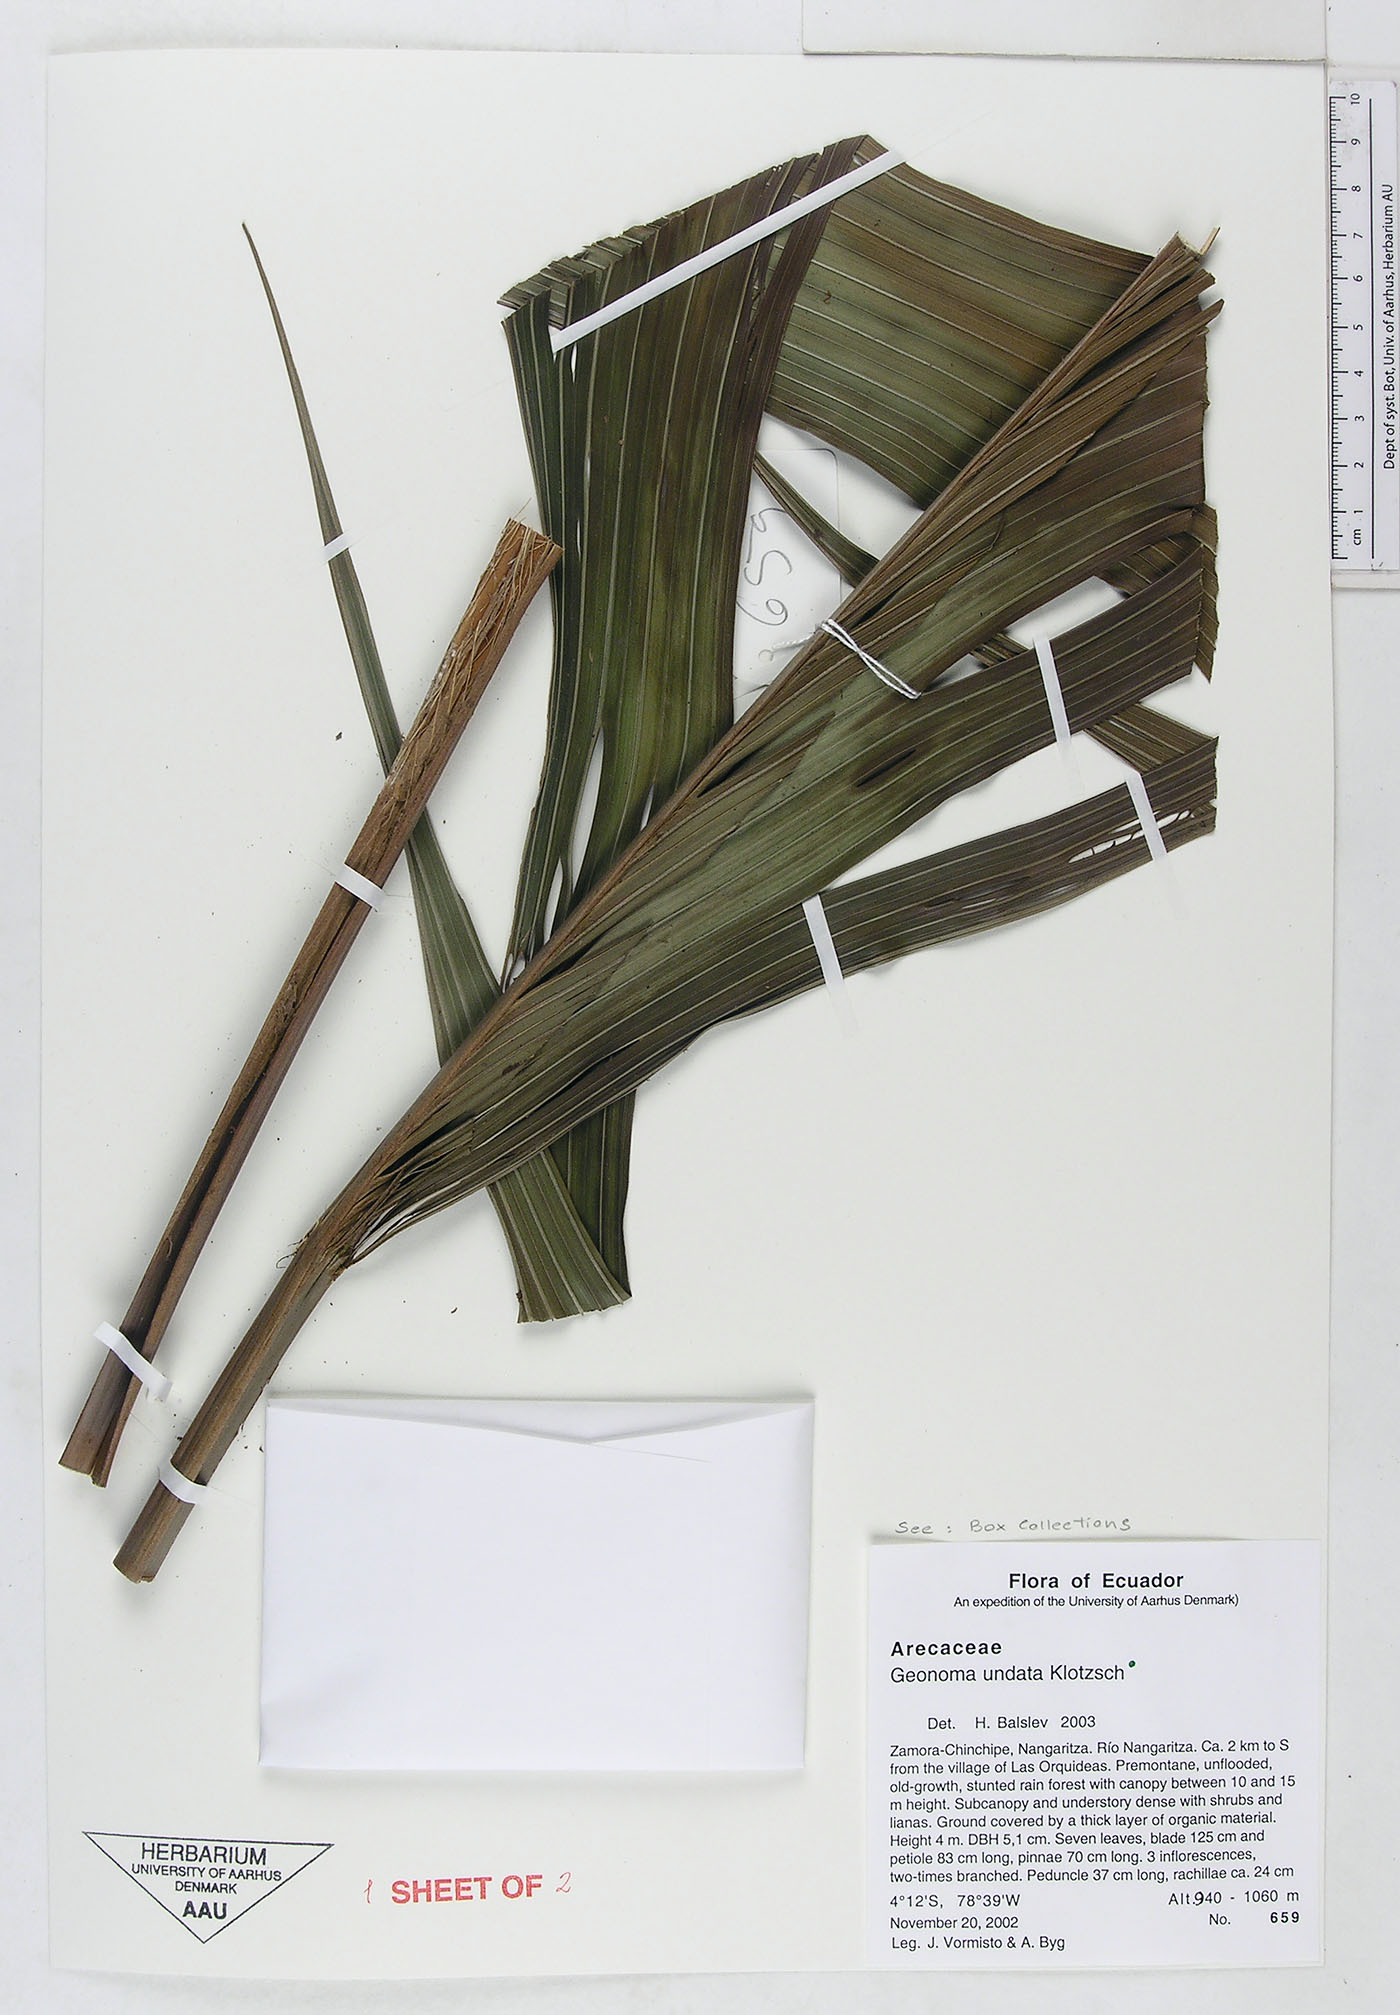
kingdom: Plantae
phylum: Tracheophyta
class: Liliopsida
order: Arecales
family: Arecaceae
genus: Geonoma
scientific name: Geonoma undata
